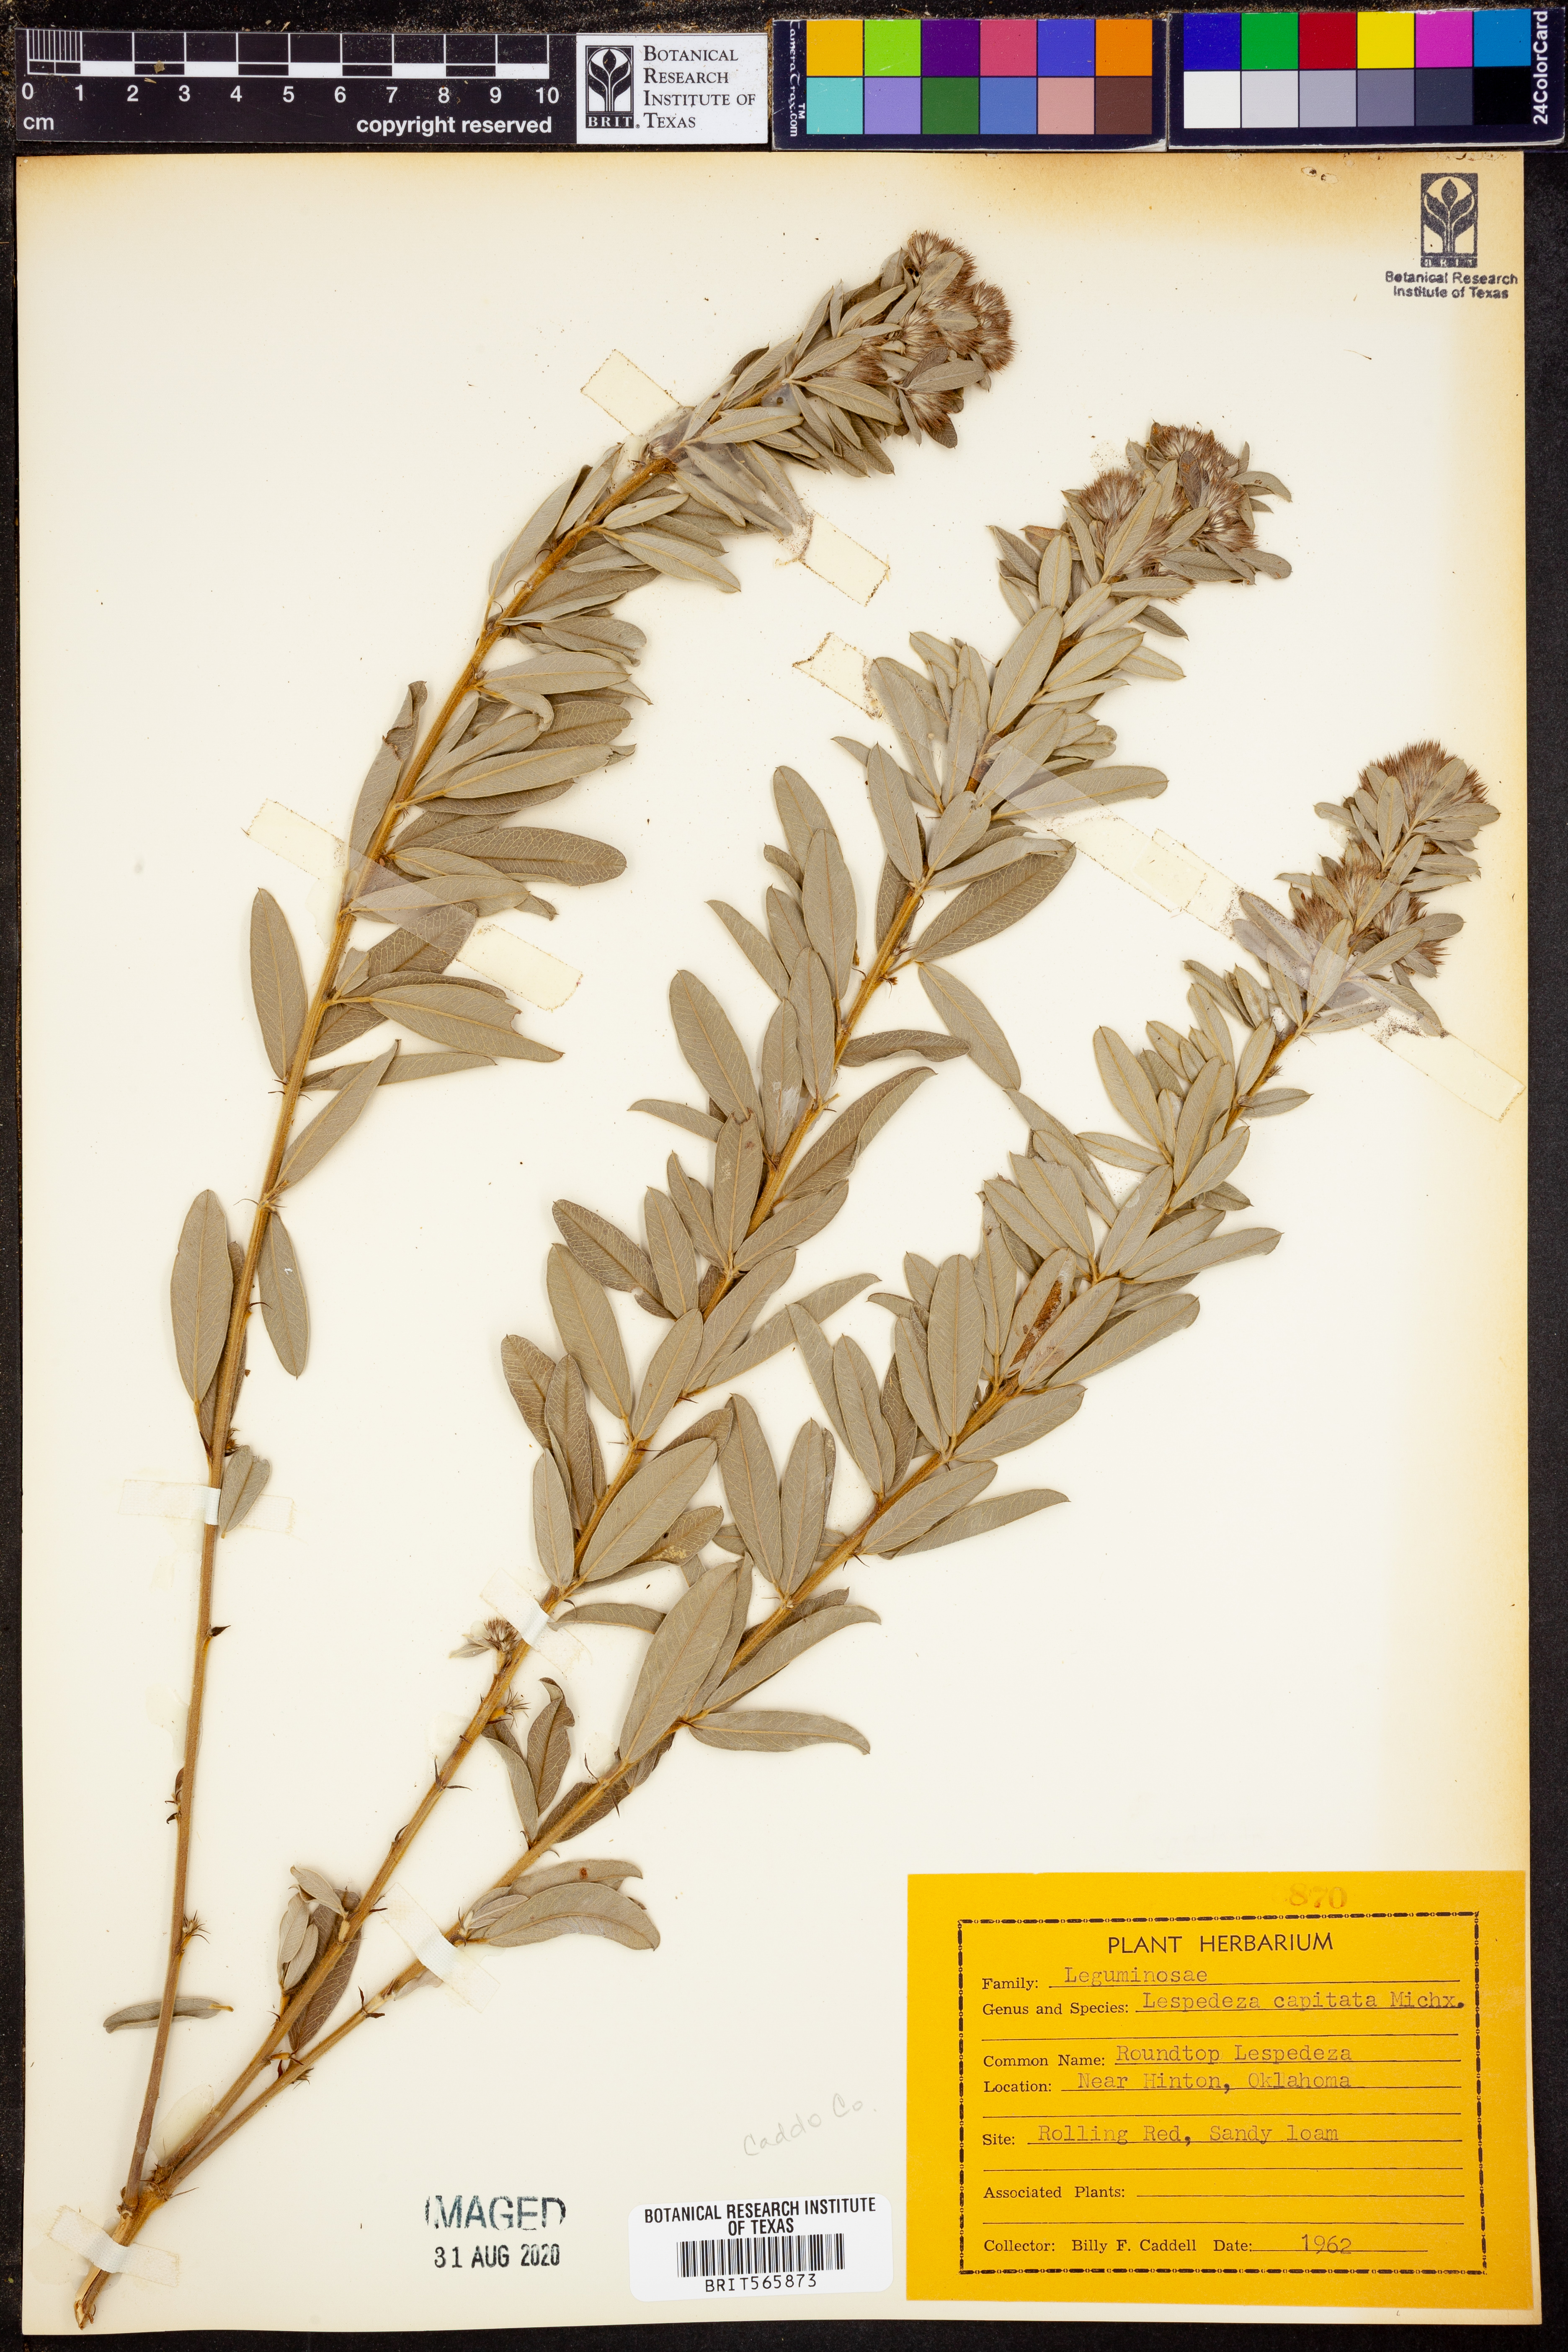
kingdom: Plantae
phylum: Tracheophyta
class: Magnoliopsida
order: Fabales
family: Fabaceae
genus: Lespedeza
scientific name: Lespedeza capitata
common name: Dusty clover
